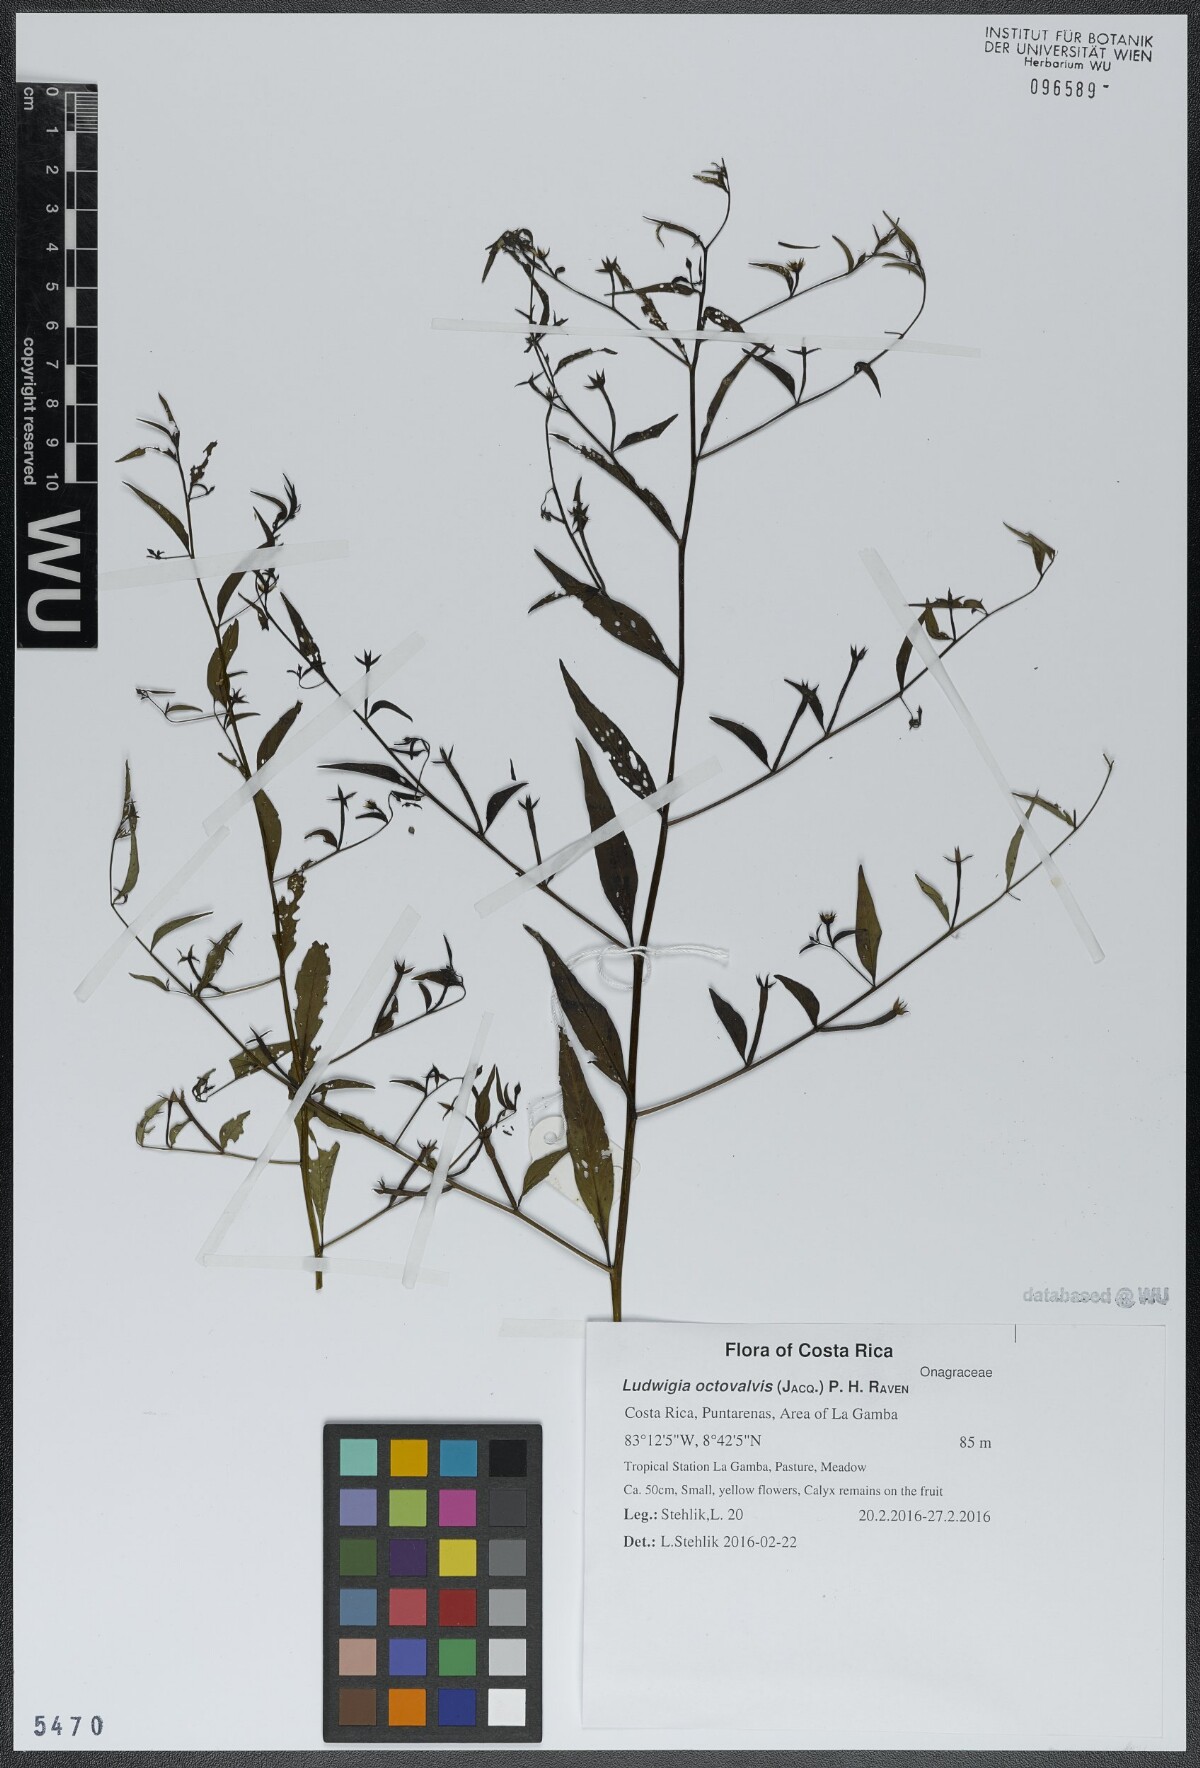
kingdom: Plantae
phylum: Tracheophyta
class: Magnoliopsida
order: Myrtales
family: Onagraceae
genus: Ludwigia
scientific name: Ludwigia octovalvis
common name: Water-primrose
